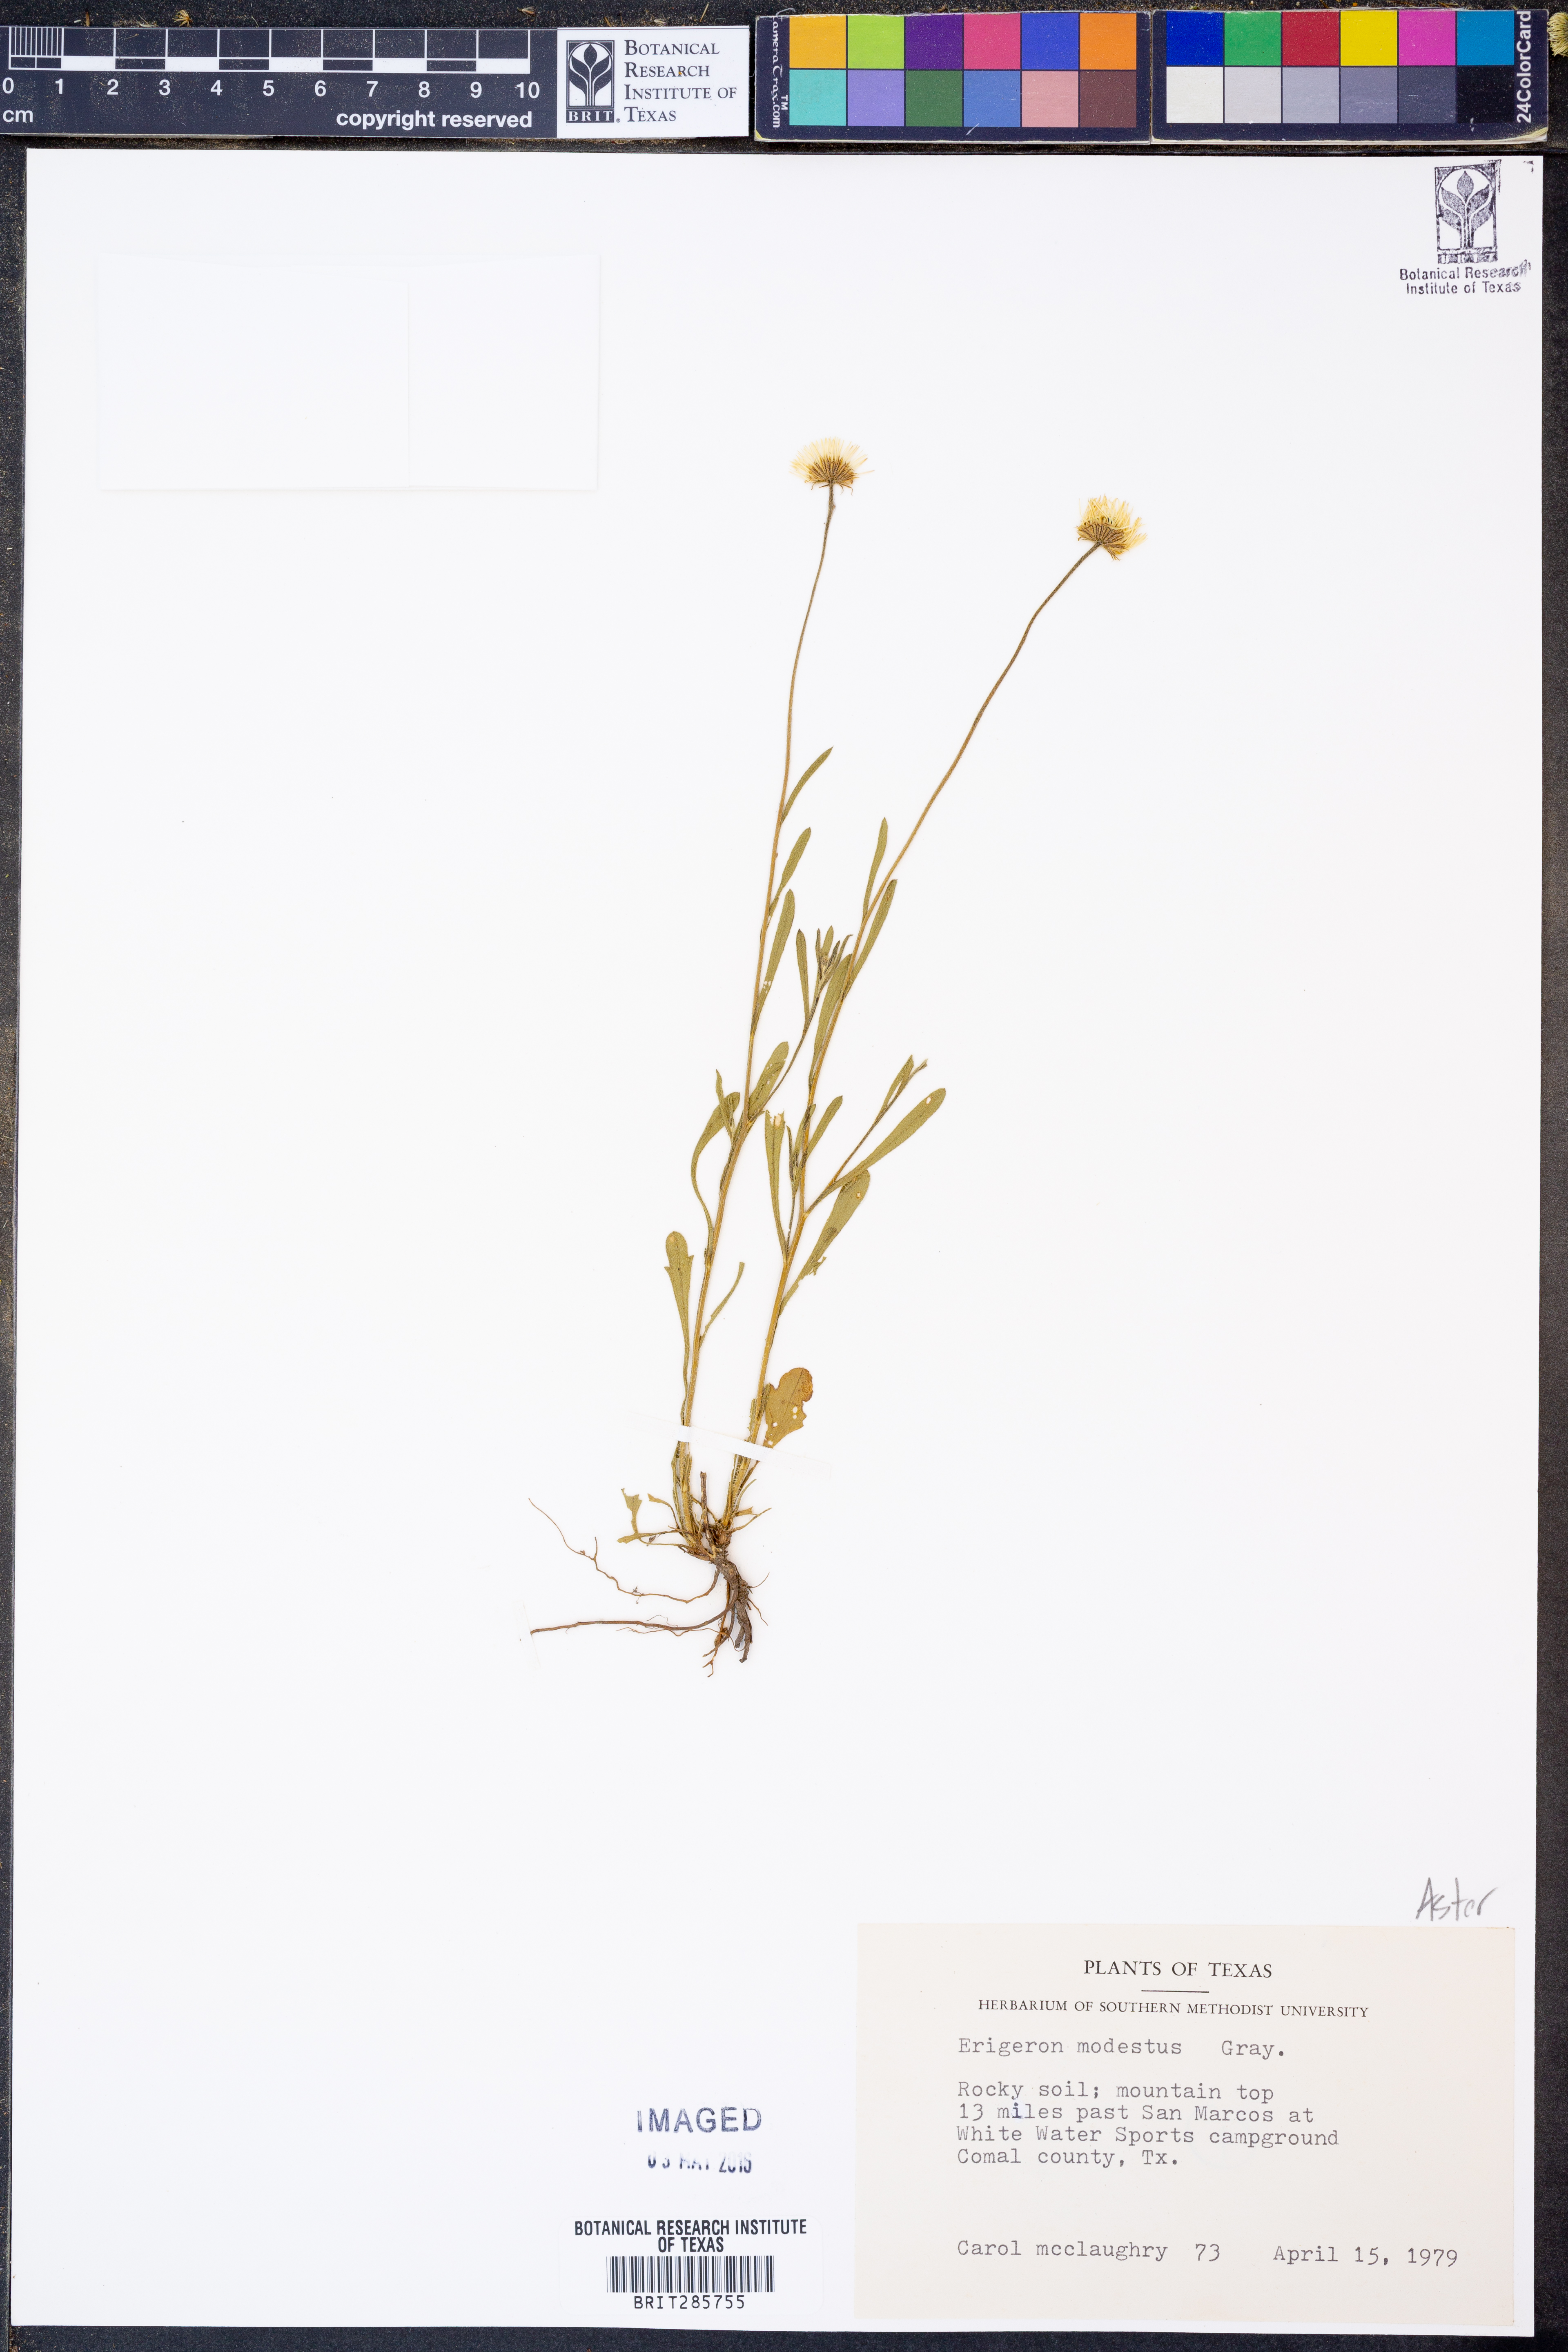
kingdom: Plantae
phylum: Tracheophyta
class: Magnoliopsida
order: Asterales
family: Asteraceae
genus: Erigeron
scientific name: Erigeron modestus
